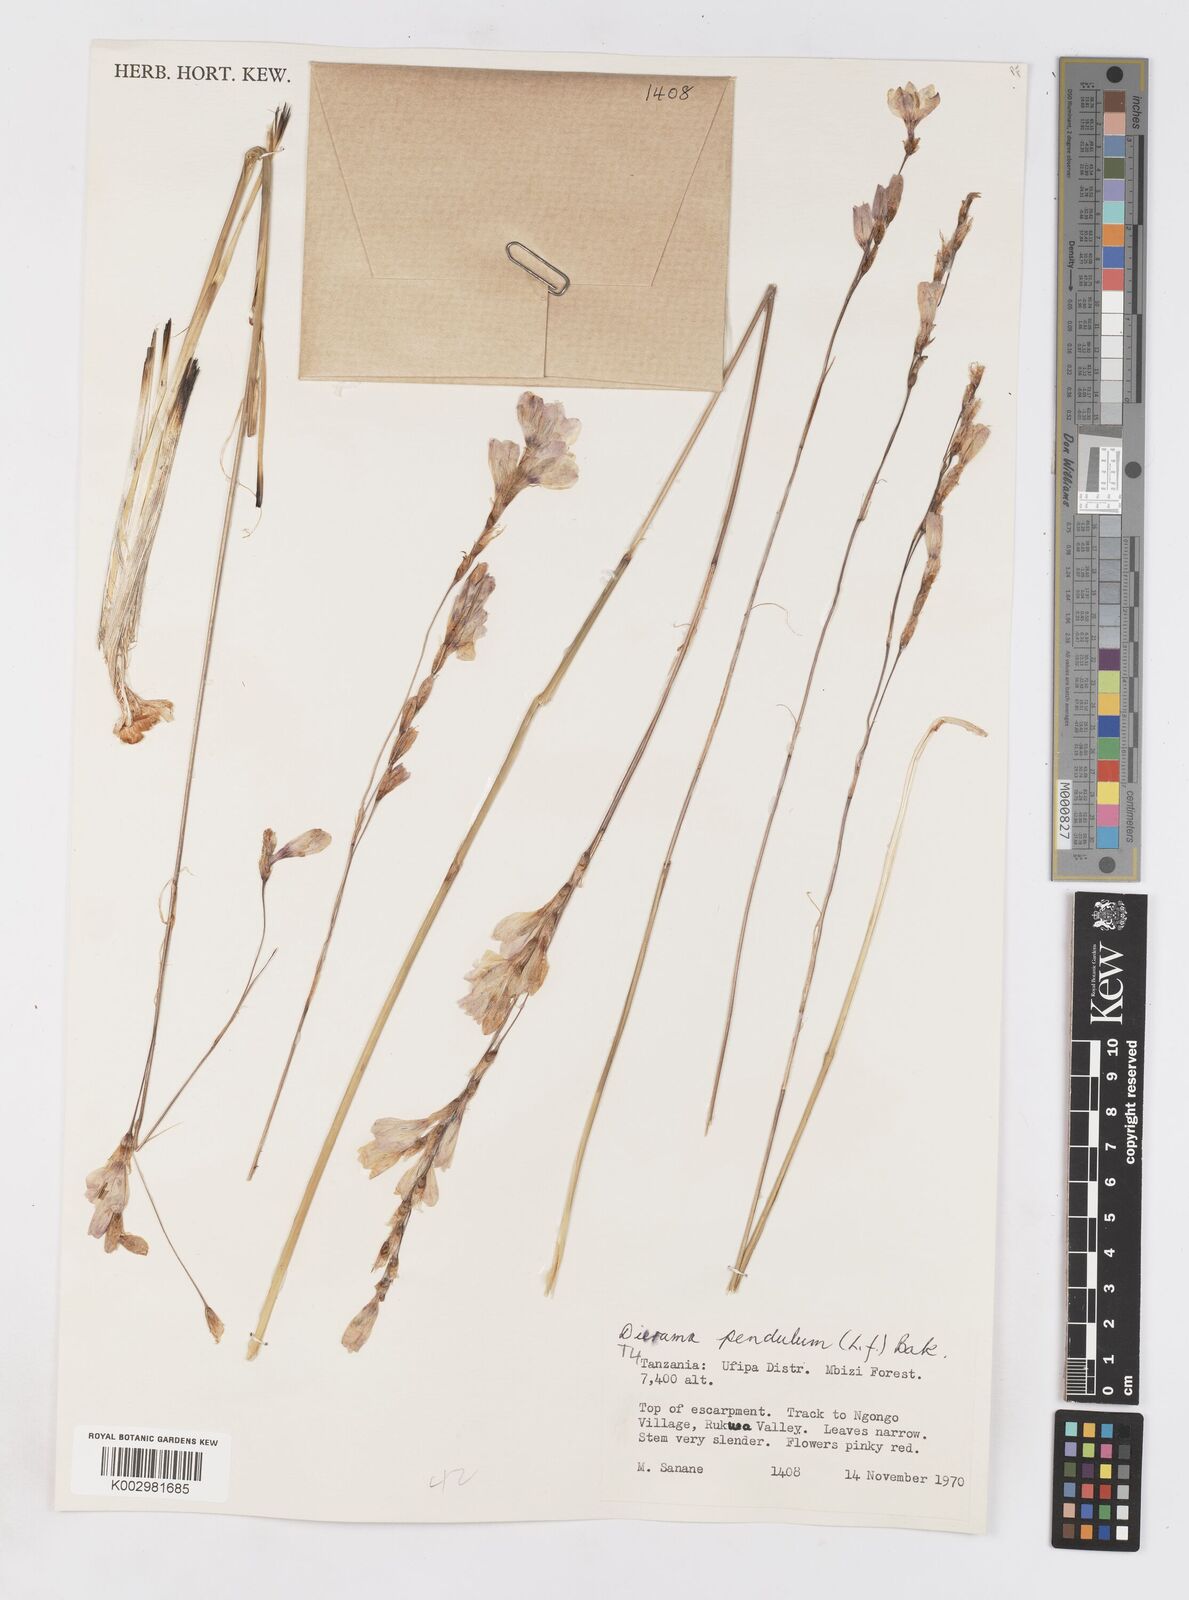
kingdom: Plantae
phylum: Tracheophyta
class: Liliopsida
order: Asparagales
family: Iridaceae
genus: Dierama
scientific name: Dierama parviflorum
